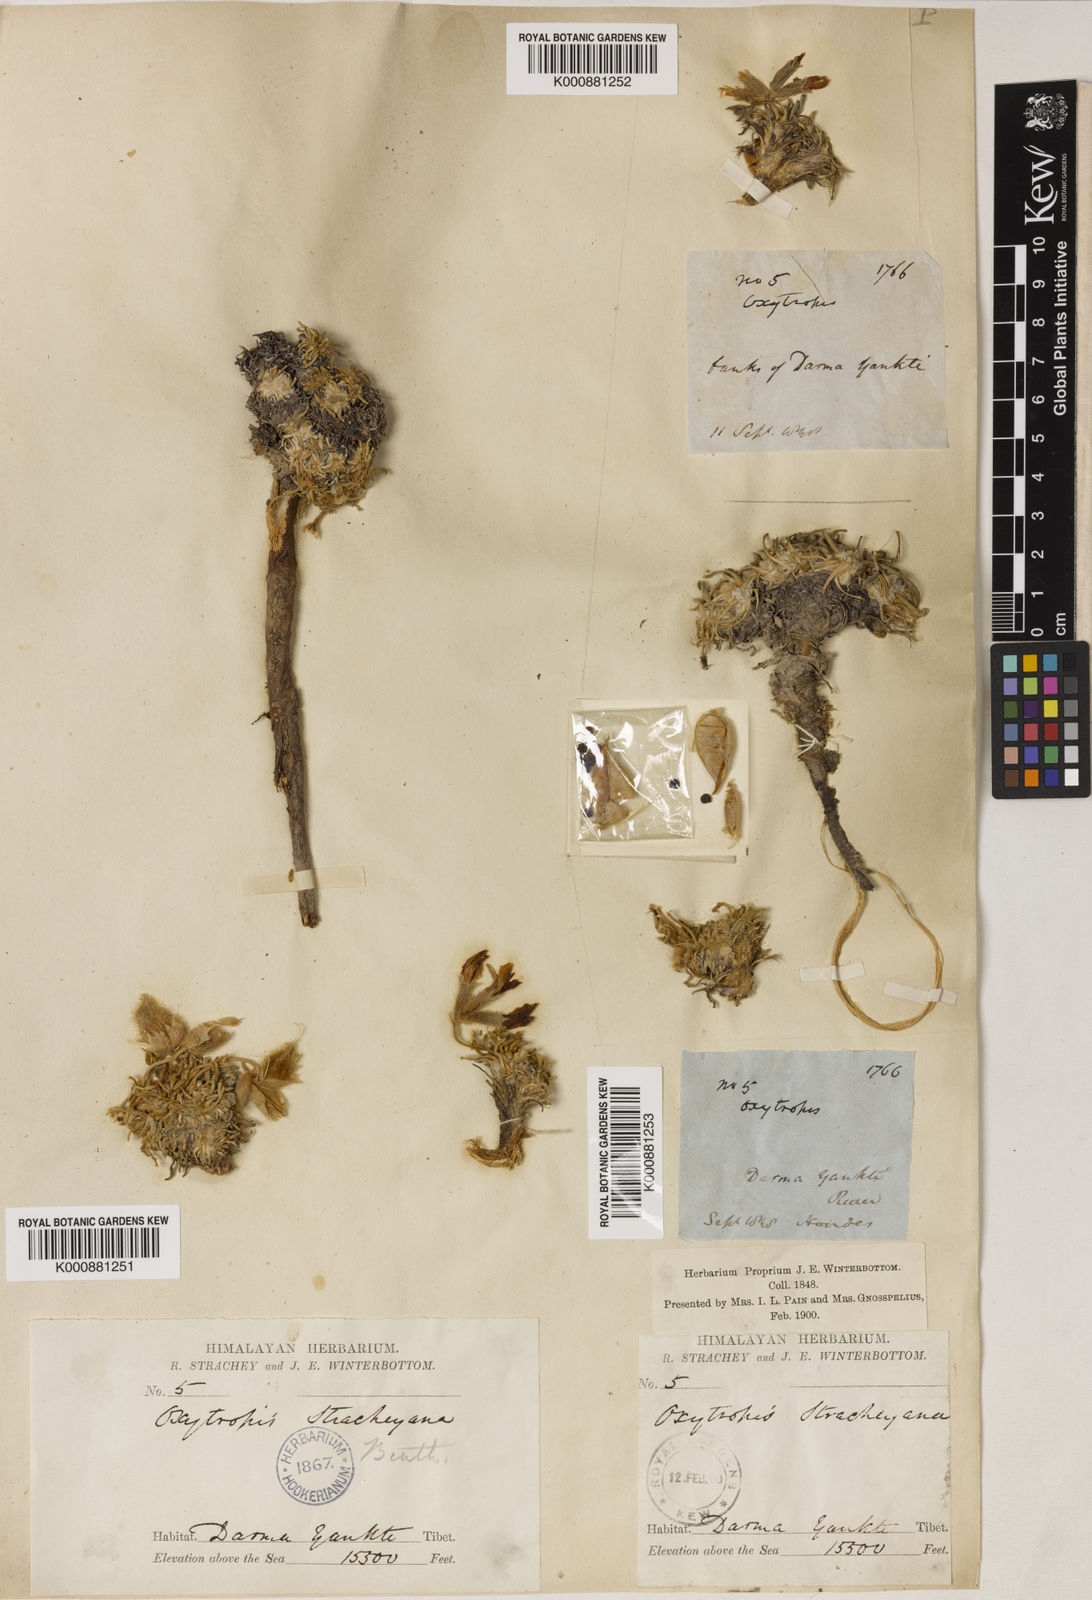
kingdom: Plantae
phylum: Tracheophyta
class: Magnoliopsida
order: Fabales
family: Fabaceae
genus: Oxytropis
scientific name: Oxytropis
